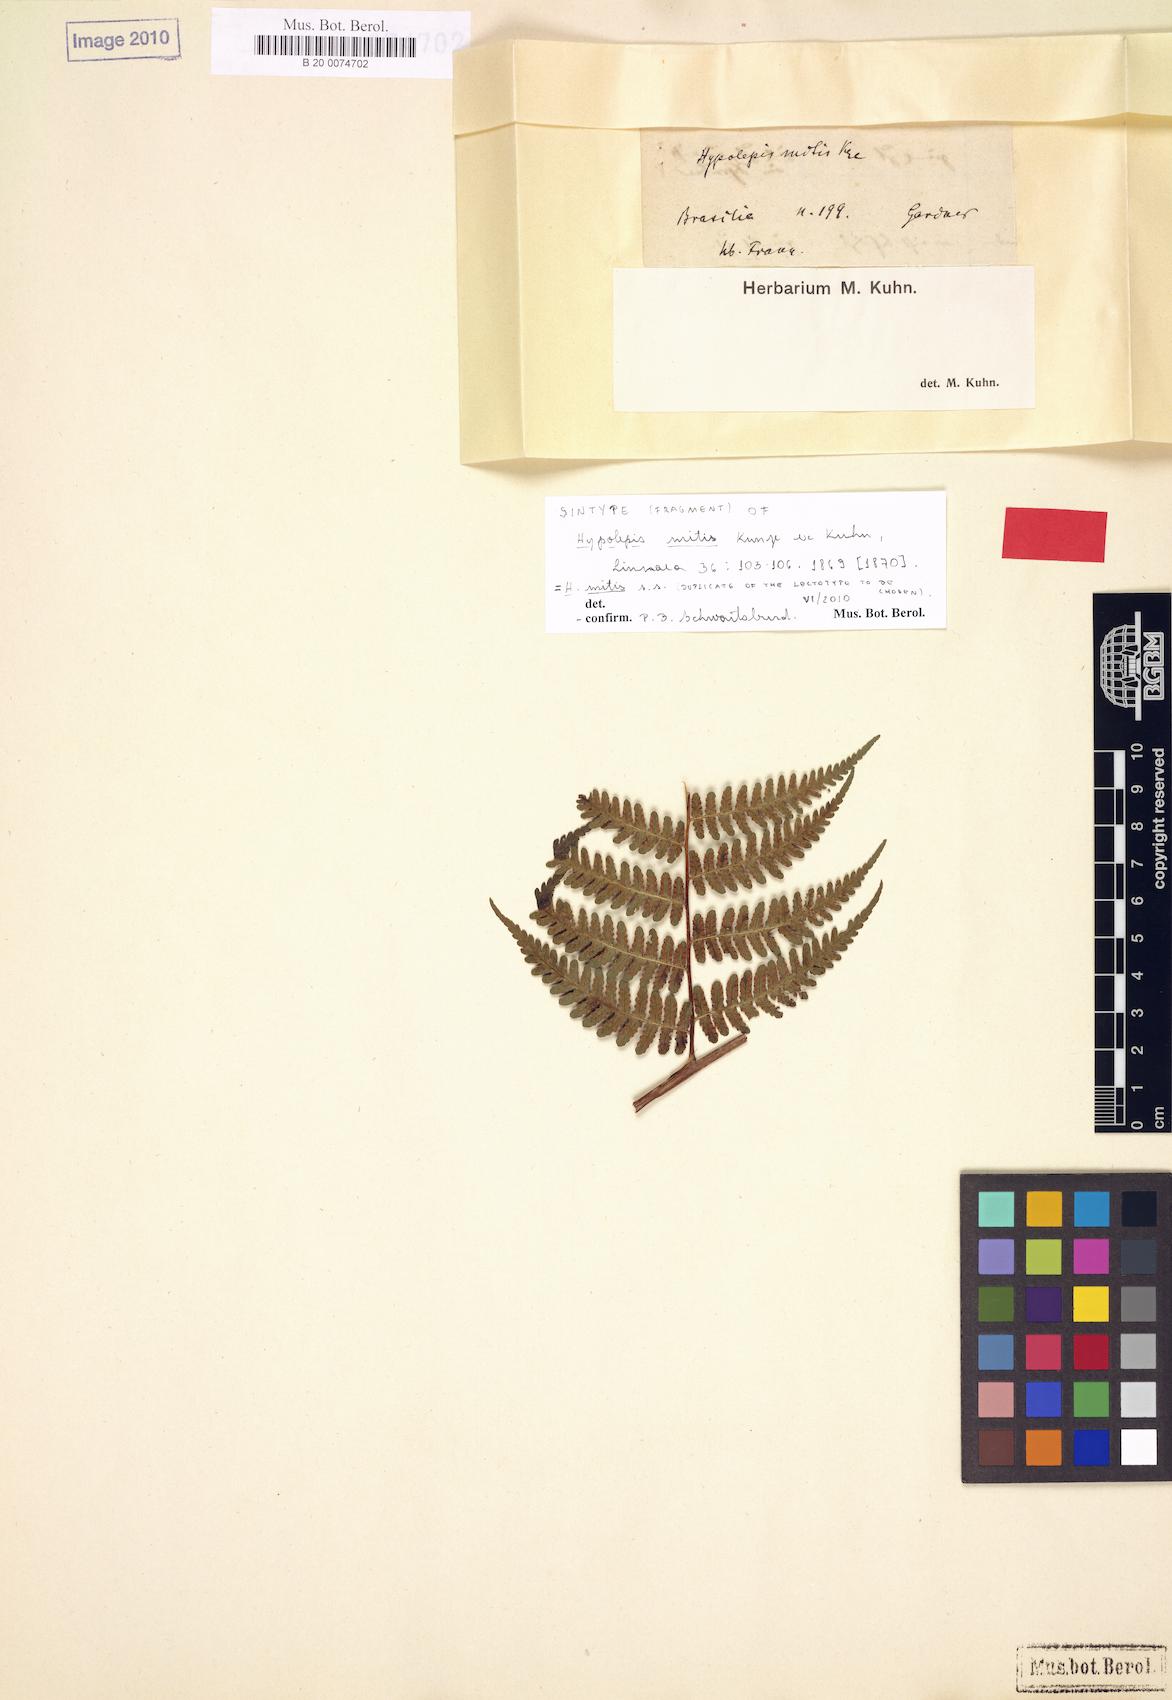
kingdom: Plantae
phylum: Tracheophyta
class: Polypodiopsida
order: Polypodiales
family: Dennstaedtiaceae
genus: Hypolepis
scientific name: Hypolepis mitis
